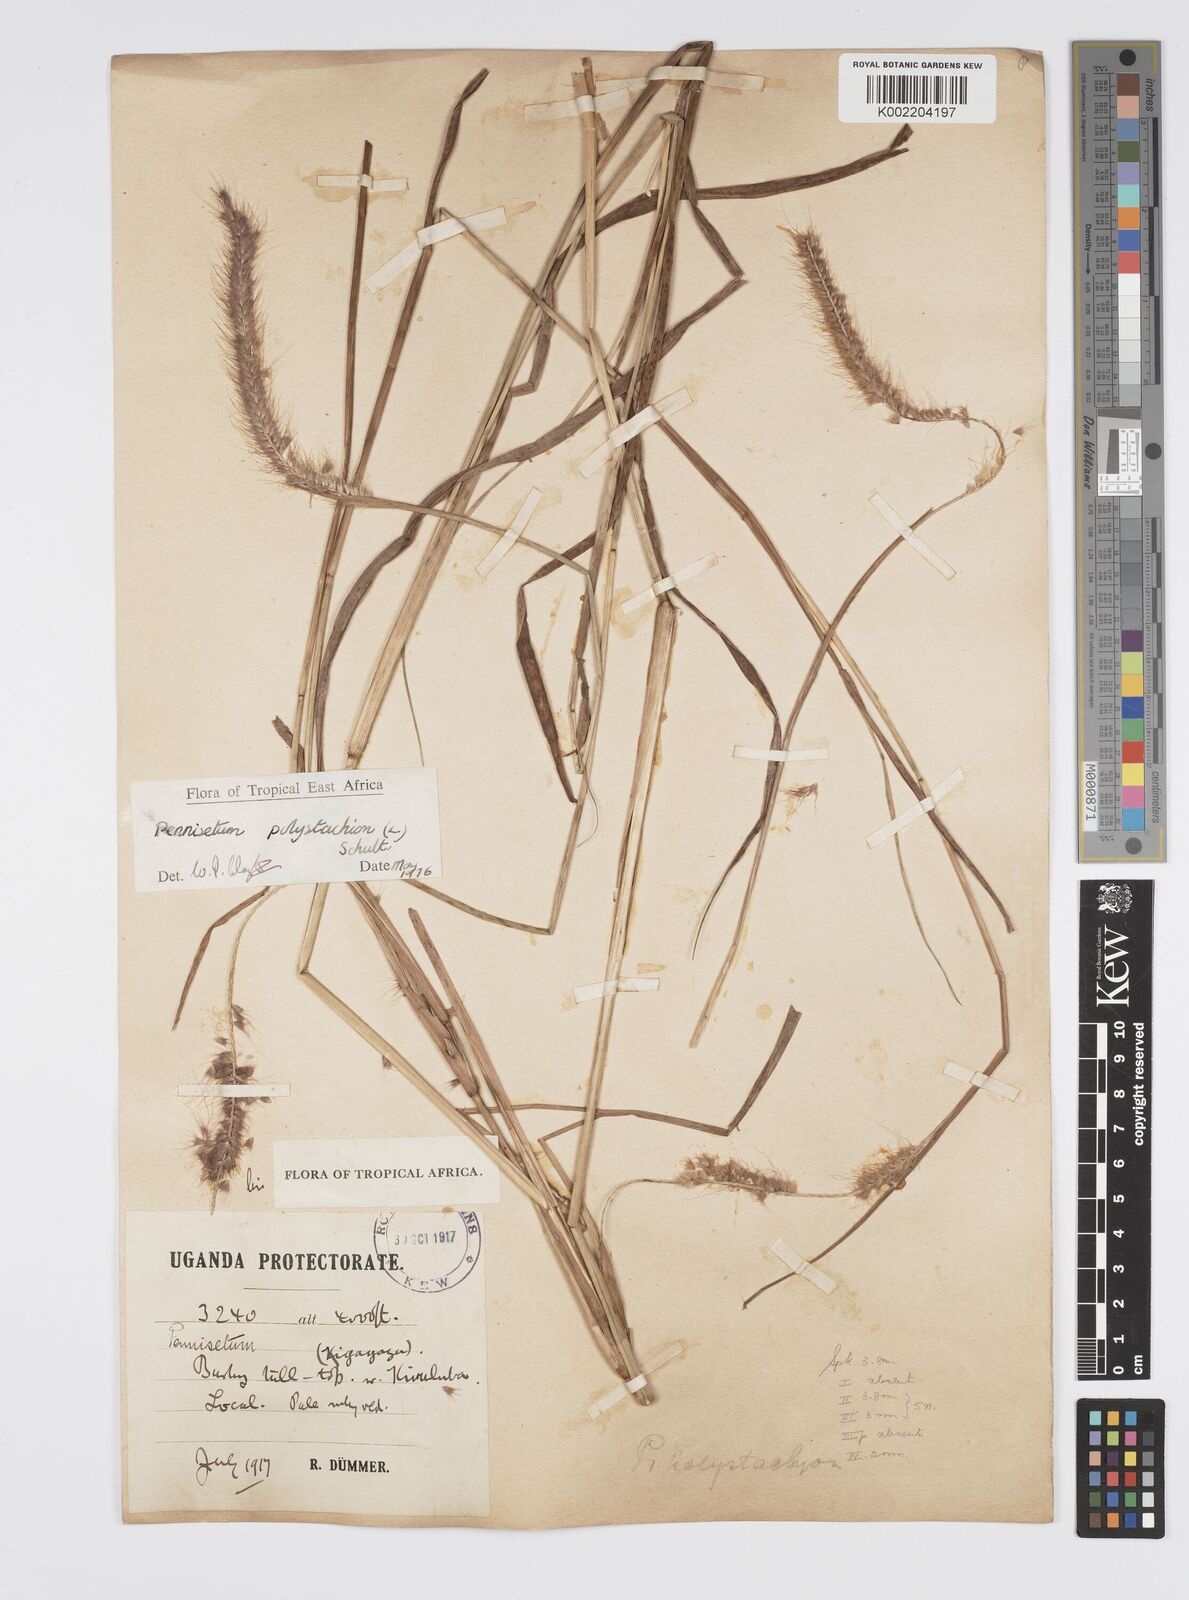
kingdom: Plantae
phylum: Tracheophyta
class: Liliopsida
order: Poales
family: Poaceae
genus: Setaria
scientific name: Setaria parviflora
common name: Knotroot bristle-grass
